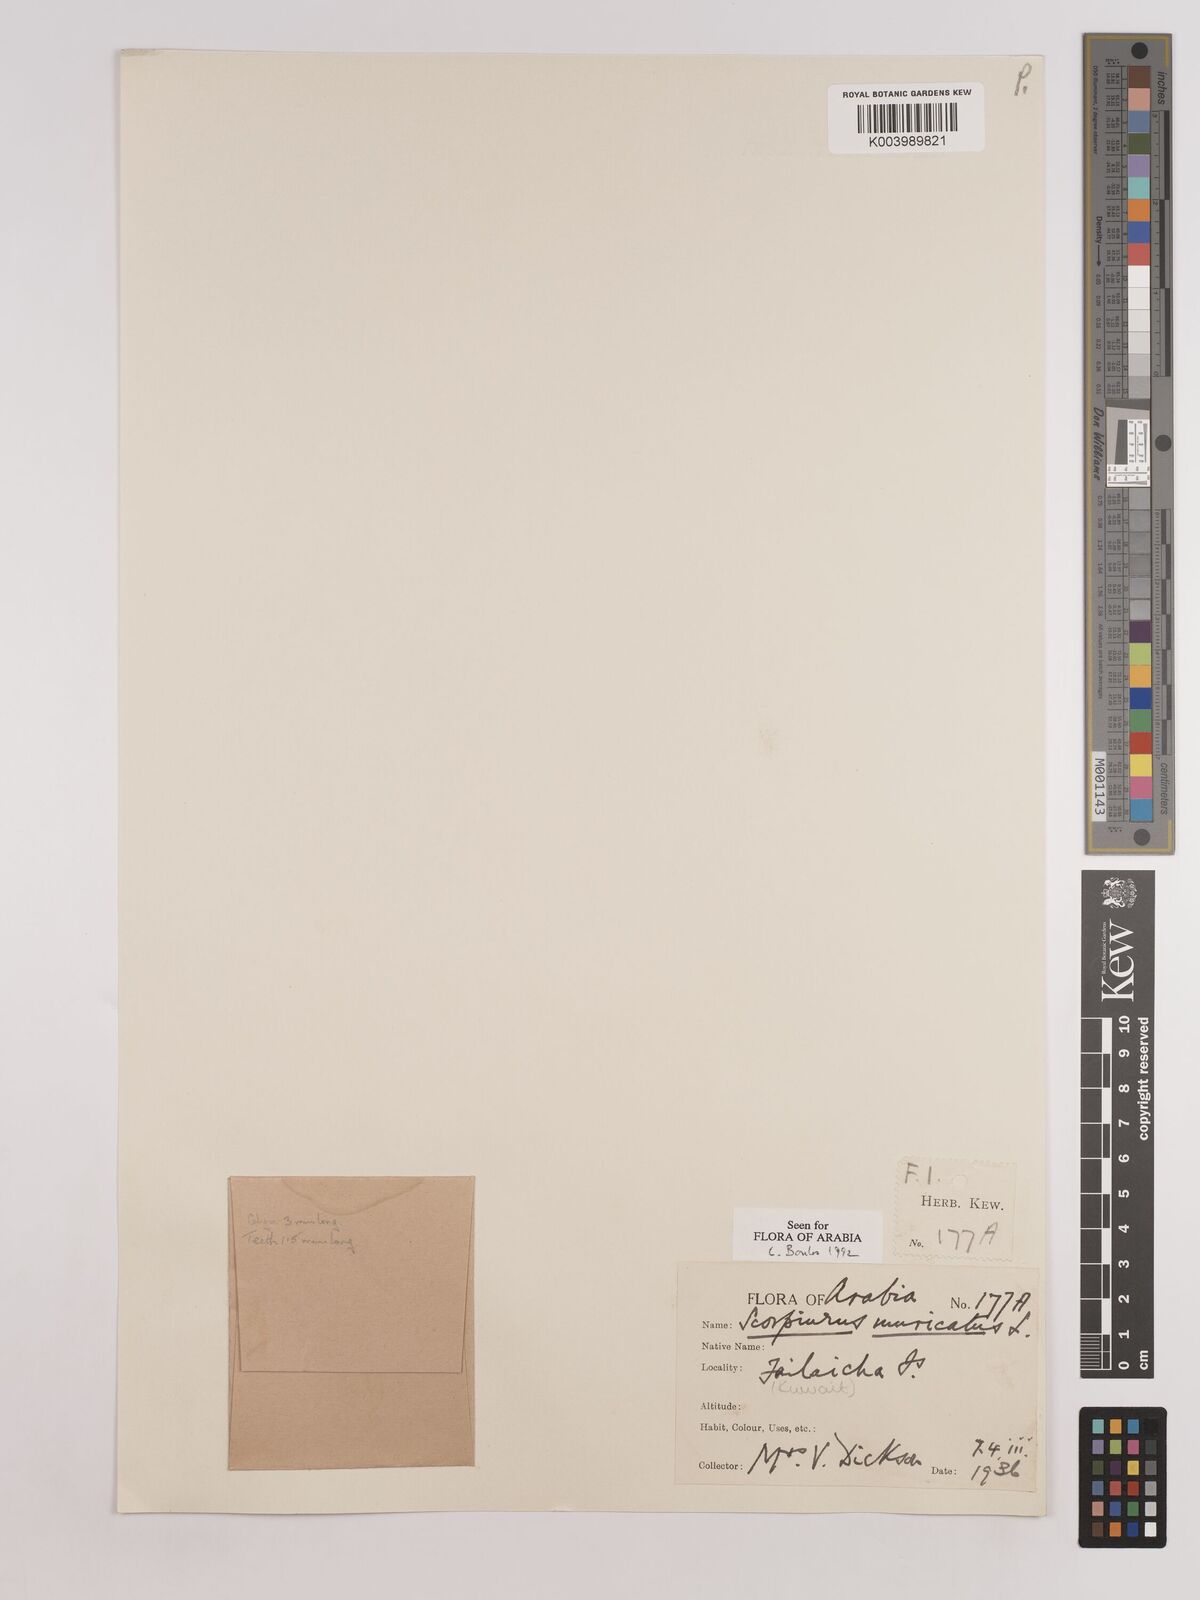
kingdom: Plantae
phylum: Tracheophyta
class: Magnoliopsida
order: Fabales
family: Fabaceae
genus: Scorpiurus
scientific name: Scorpiurus muricatus
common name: Caterpillar-plant
